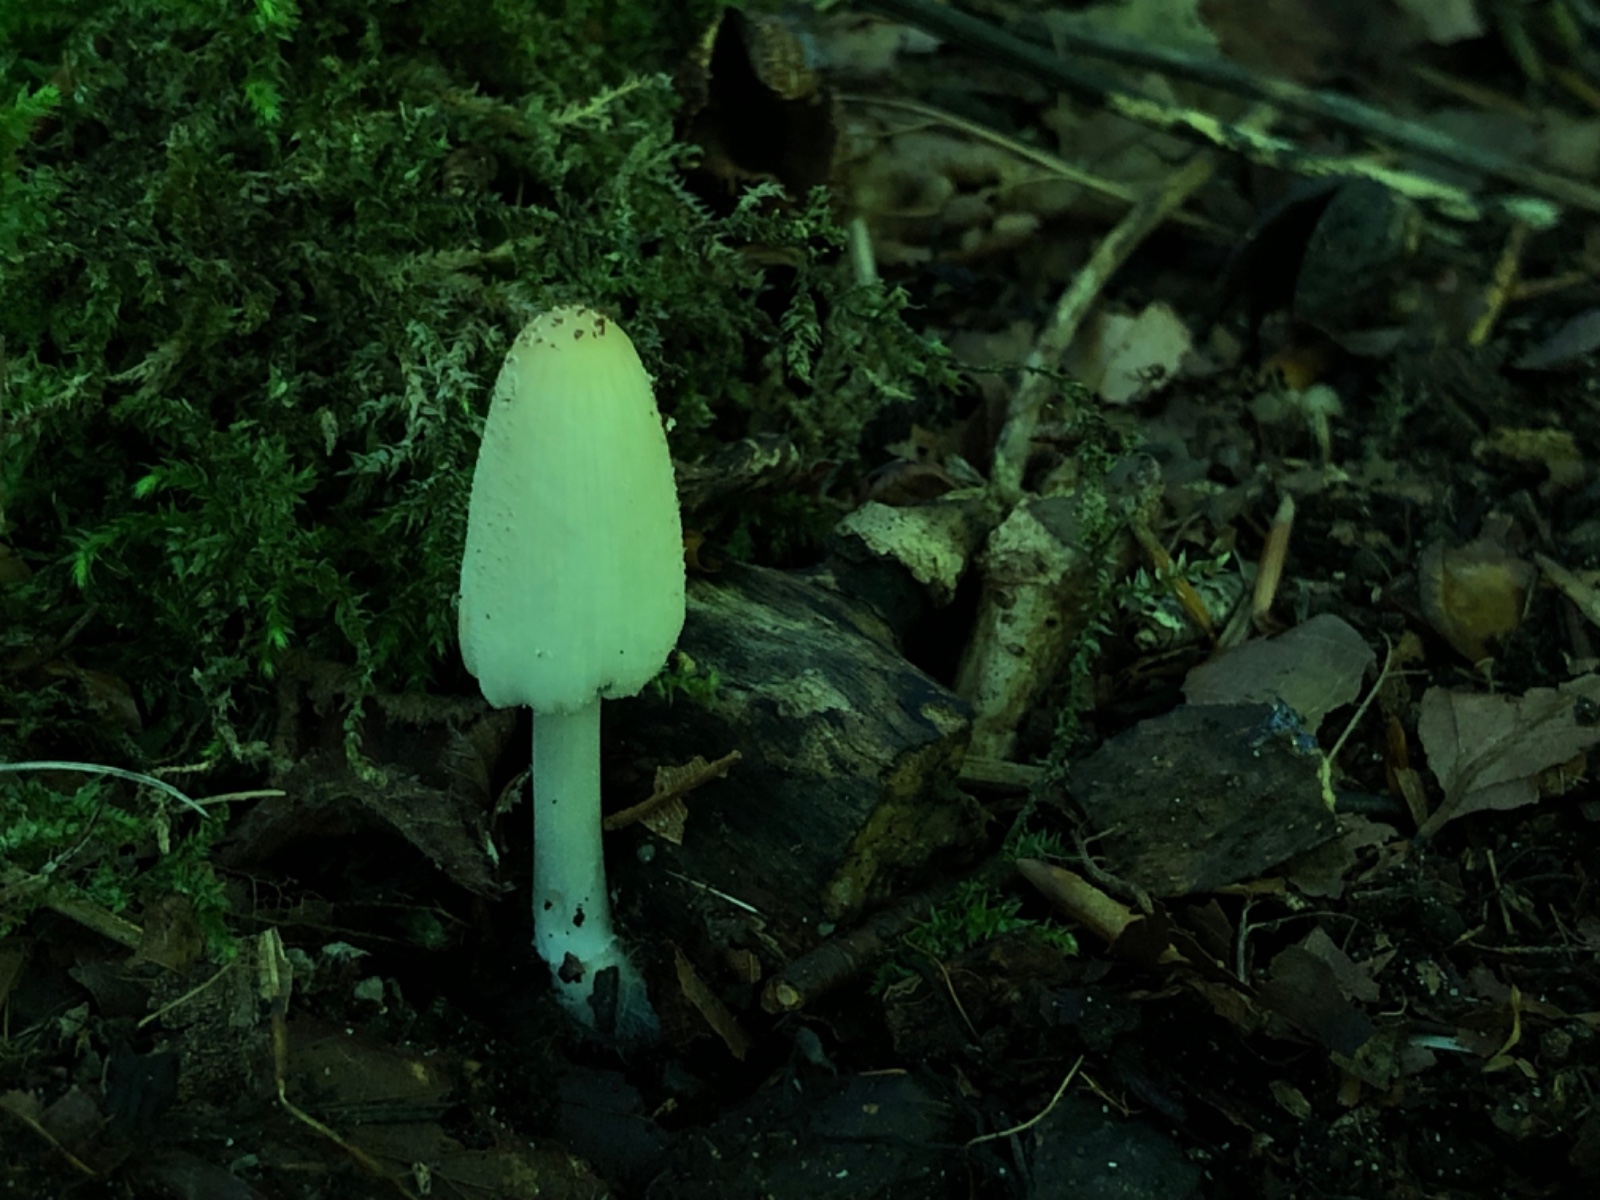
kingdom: Fungi
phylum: Basidiomycota
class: Agaricomycetes
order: Agaricales
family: Psathyrellaceae
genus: Coprinellus
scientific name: Coprinellus
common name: blækhat
